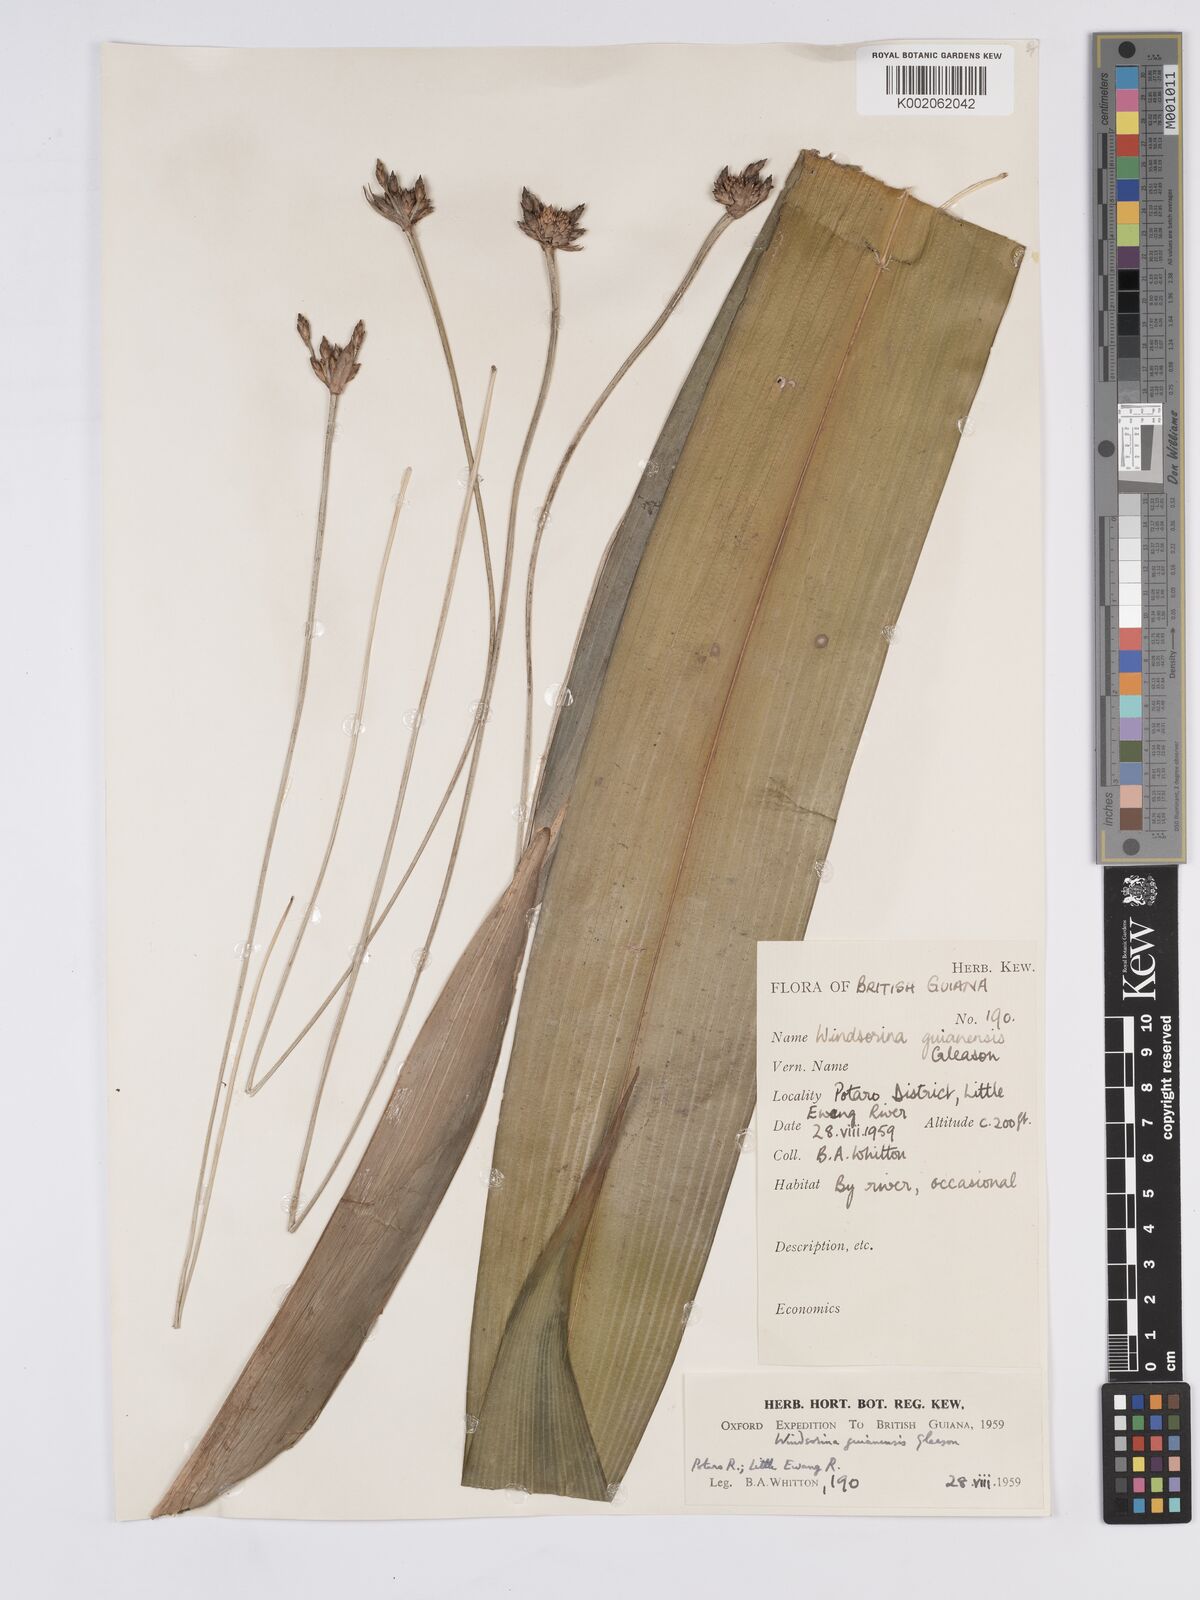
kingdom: Plantae
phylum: Tracheophyta
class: Liliopsida
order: Poales
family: Rapateaceae
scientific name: Rapateaceae
